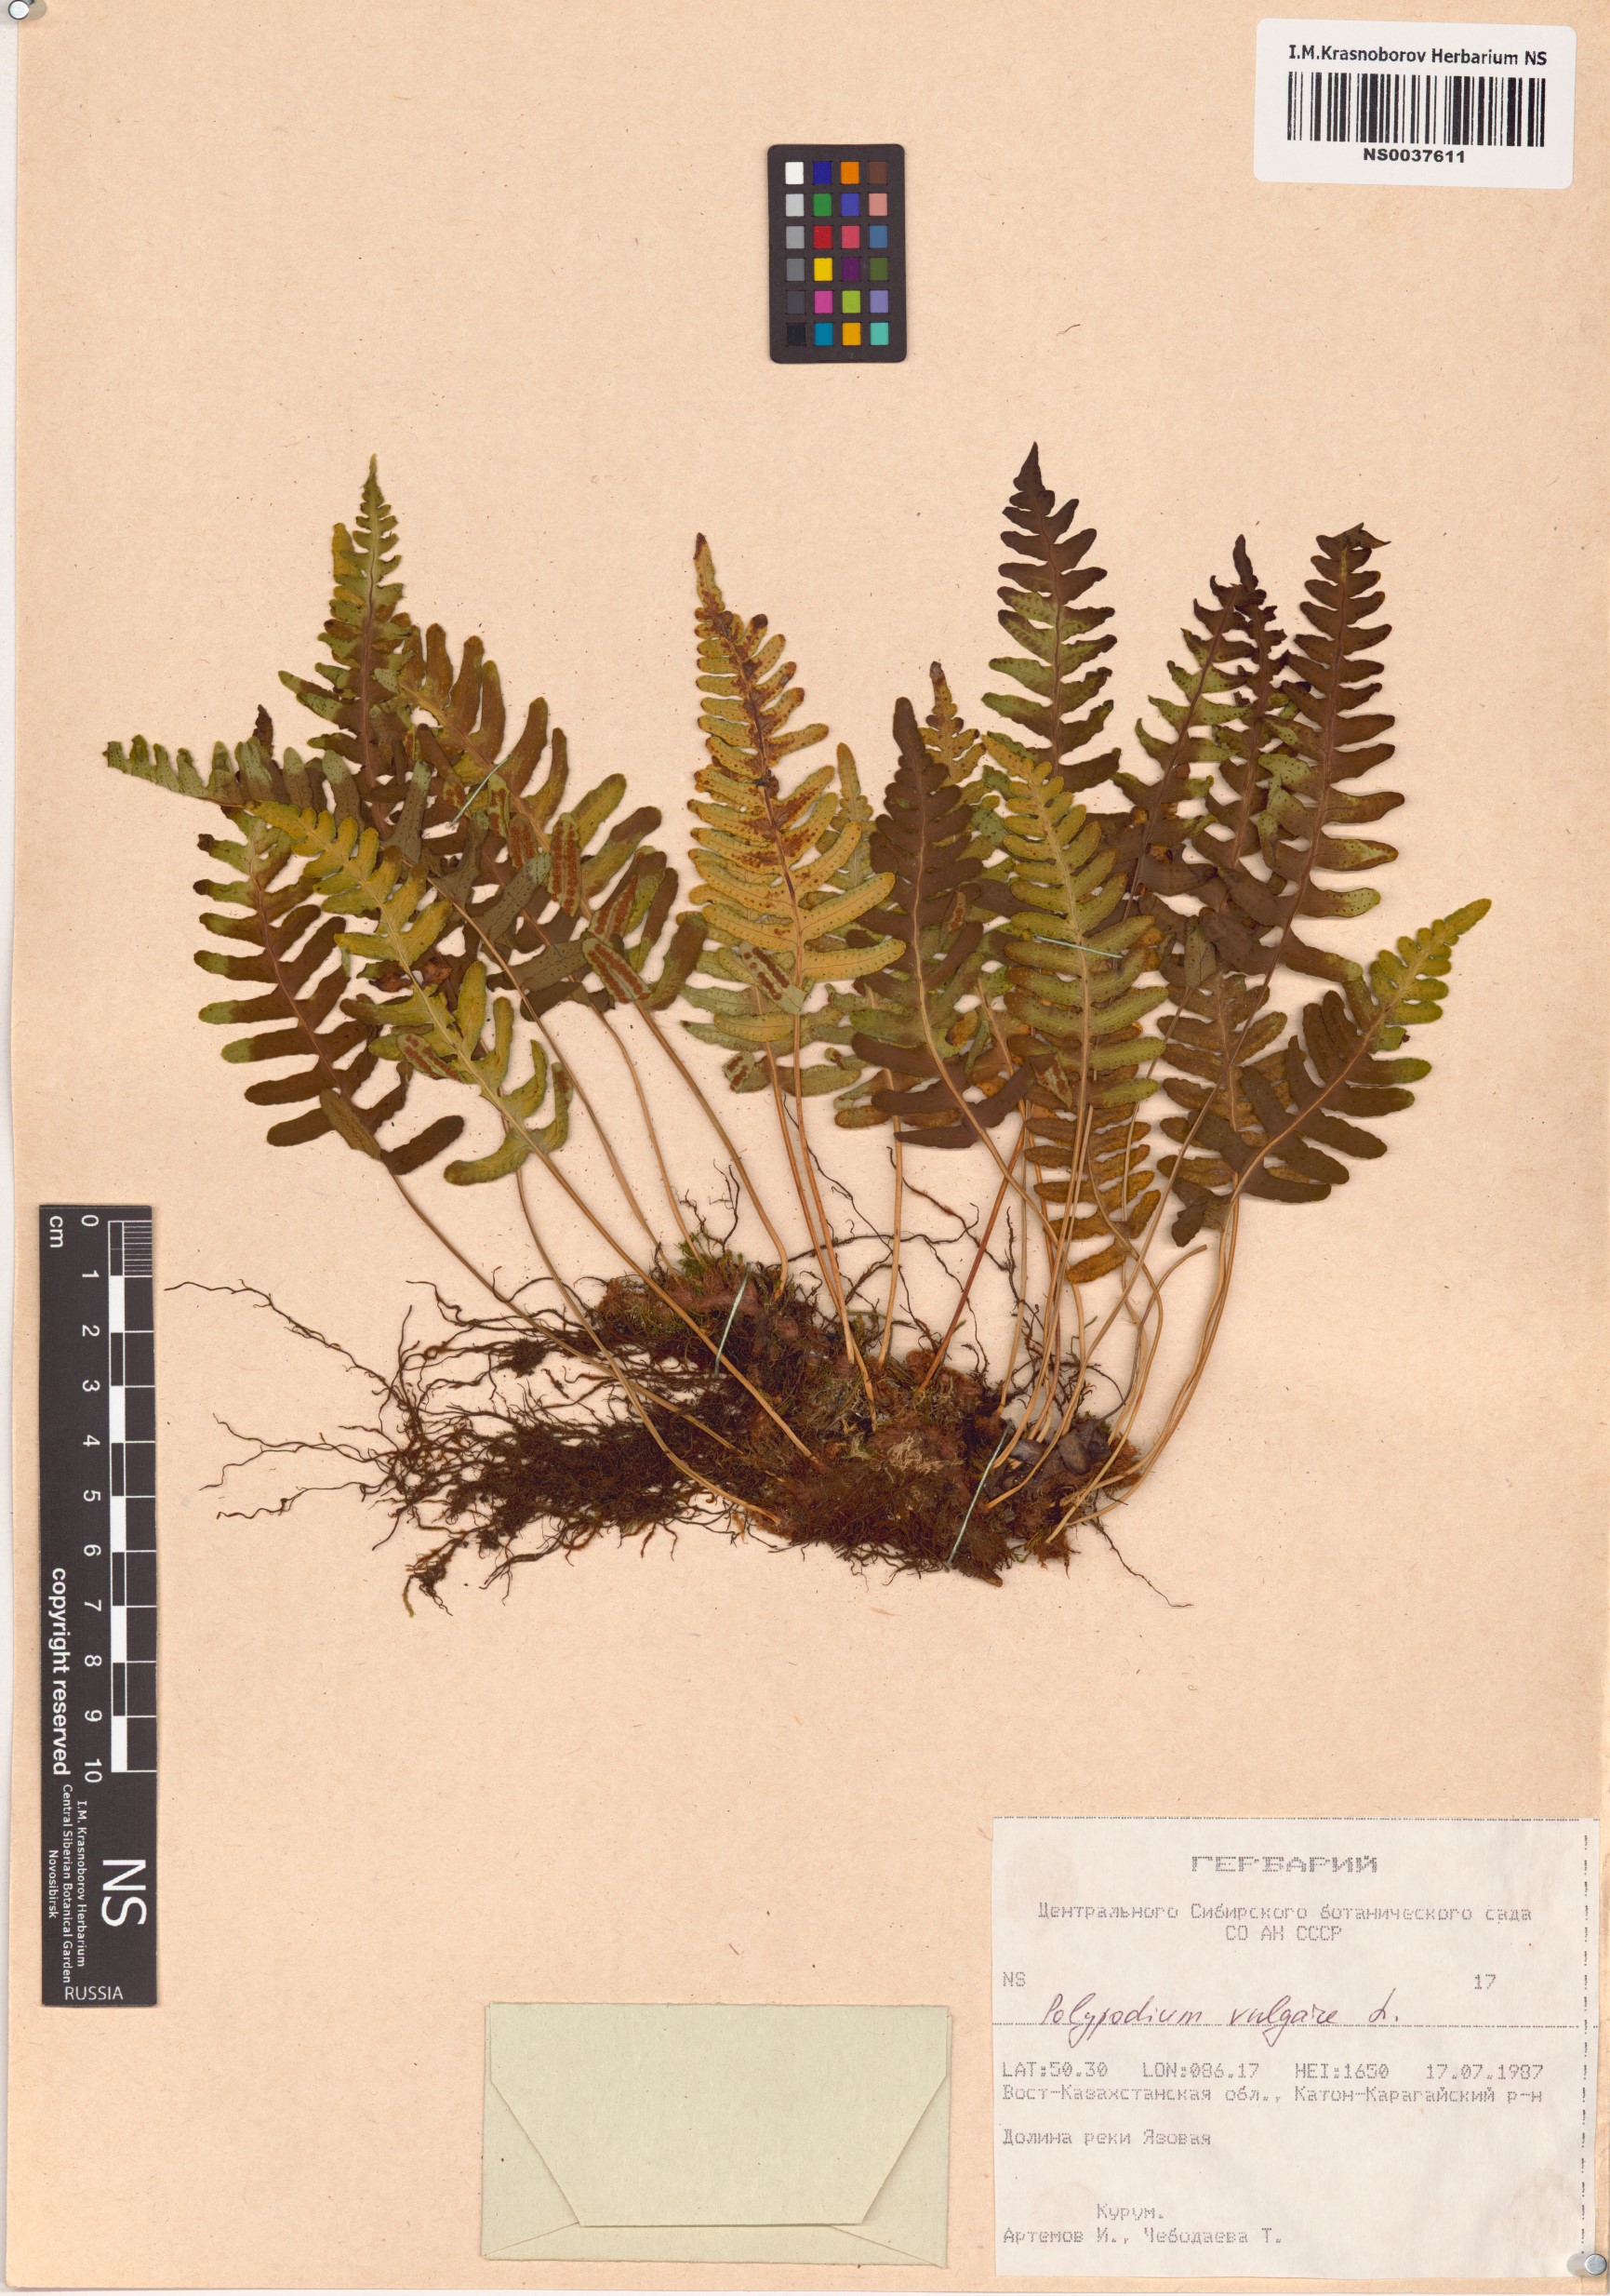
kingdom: Plantae
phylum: Tracheophyta
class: Polypodiopsida
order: Polypodiales
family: Polypodiaceae
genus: Polypodium
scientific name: Polypodium vulgare
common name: Common polypody
